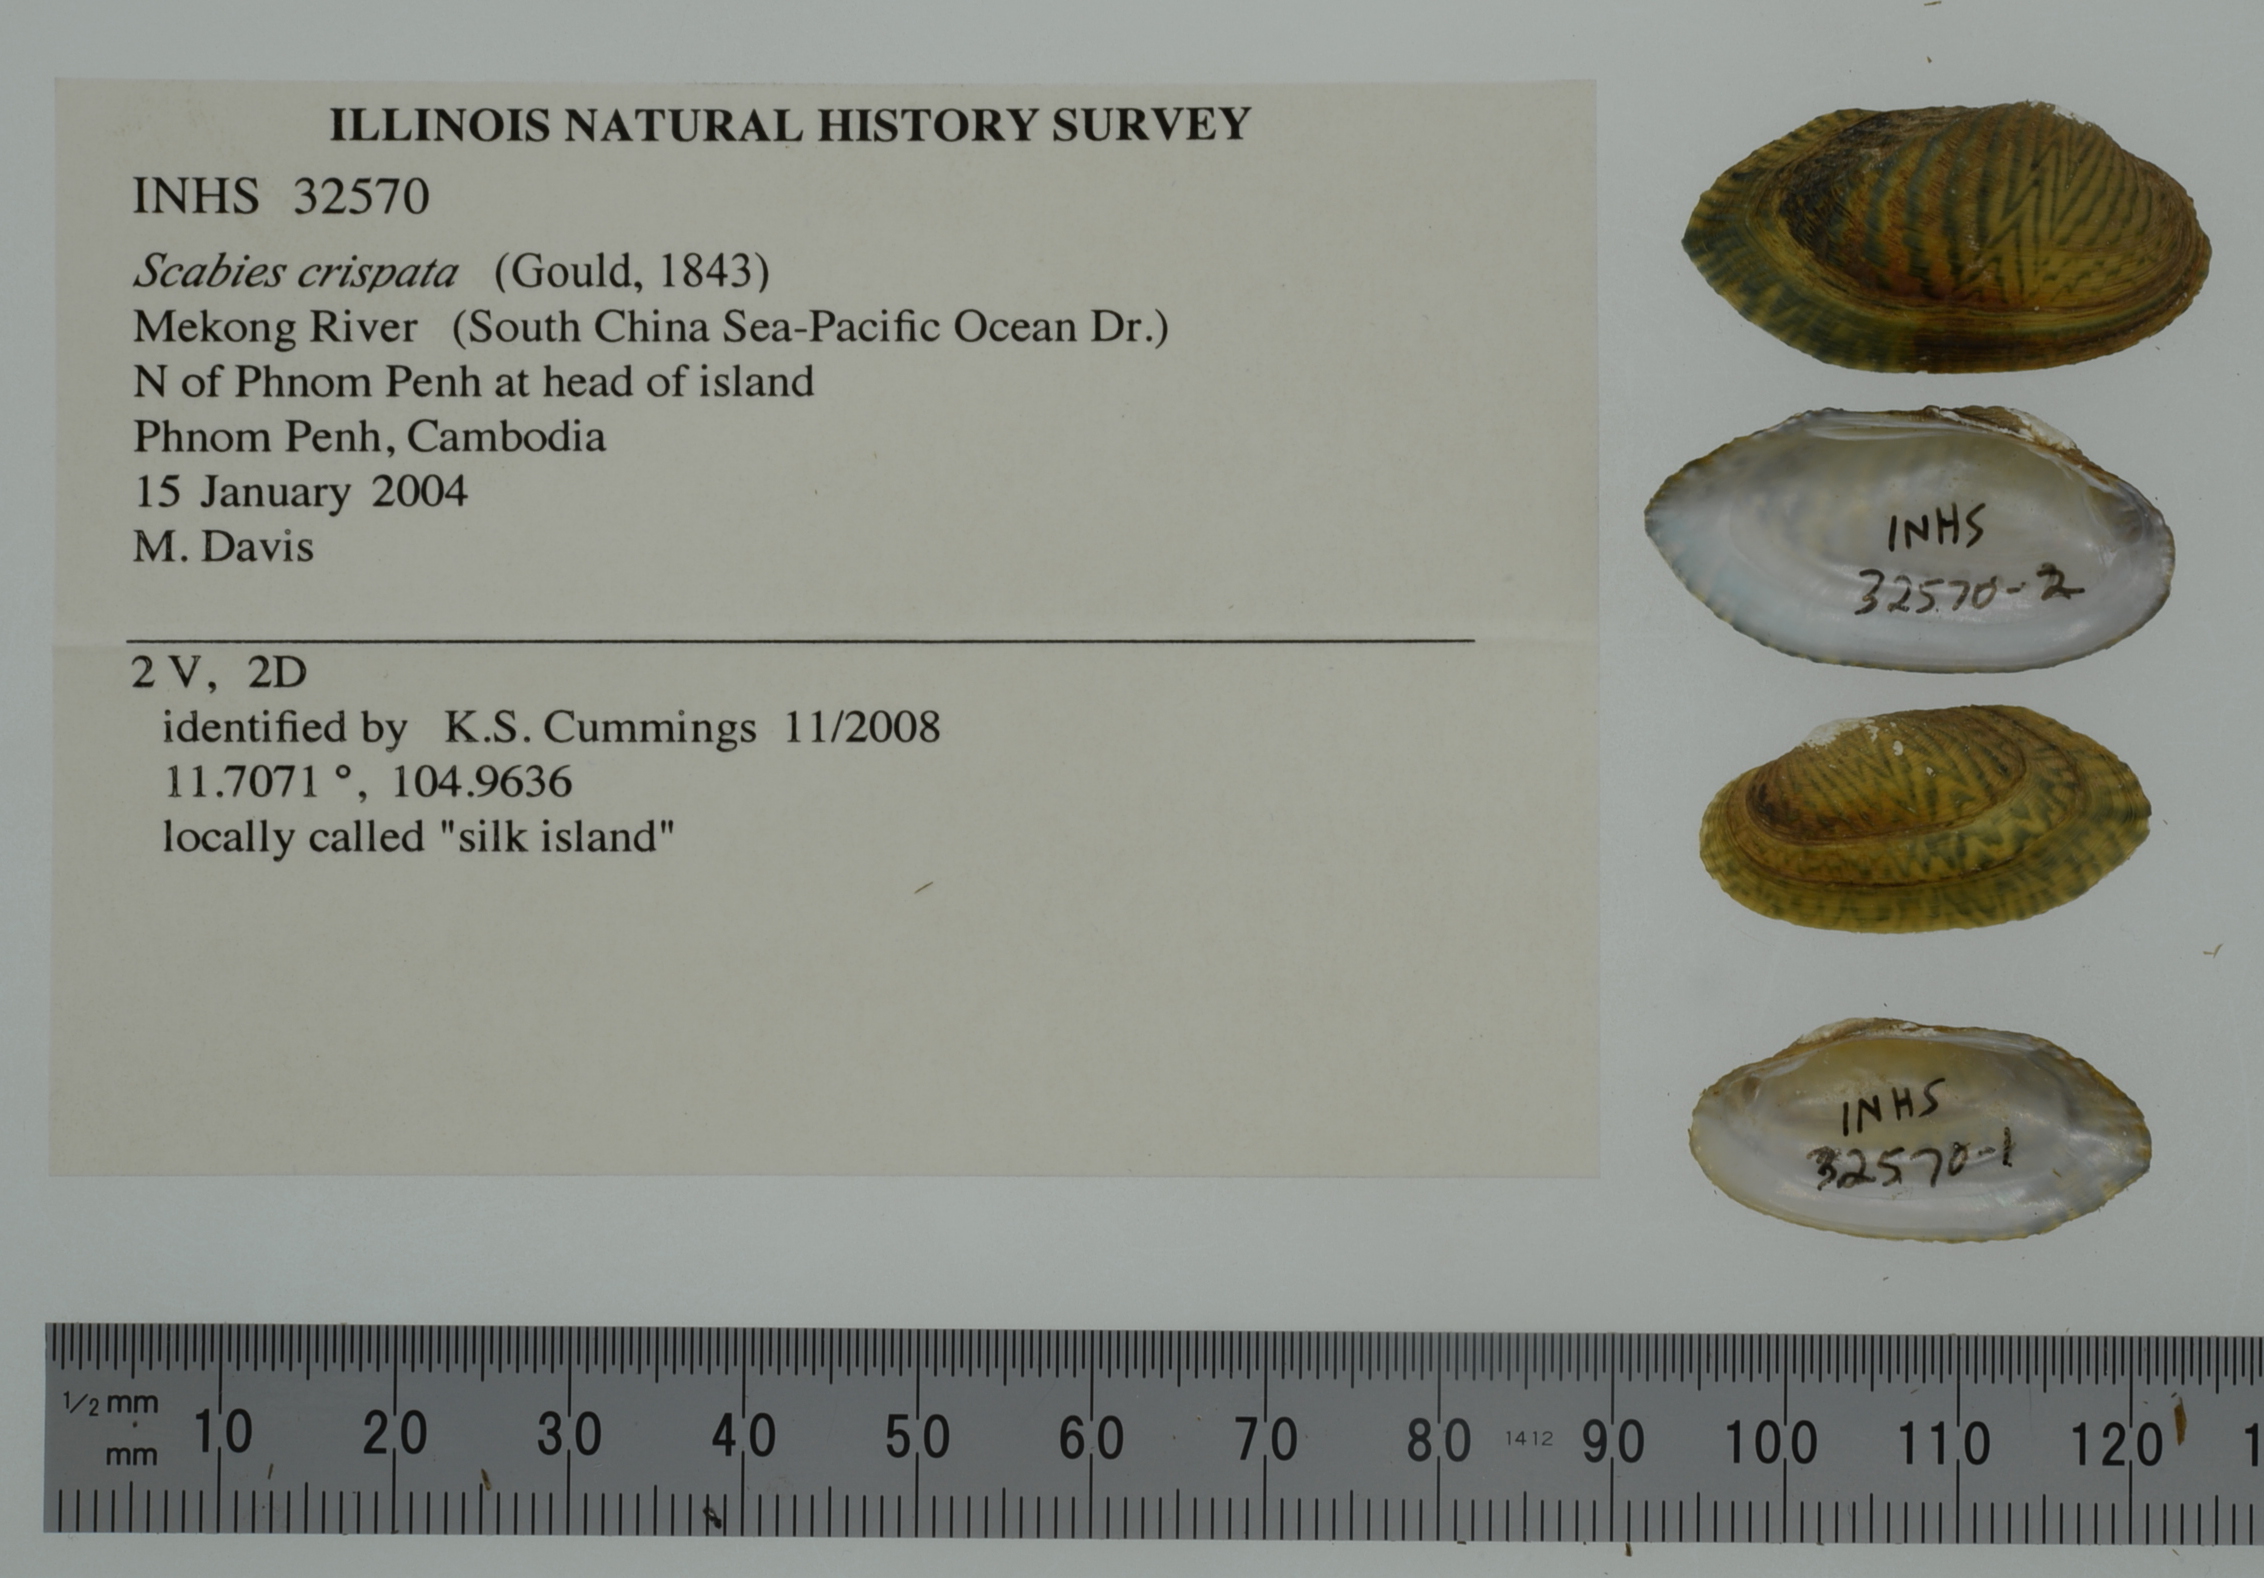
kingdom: Animalia
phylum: Mollusca
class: Bivalvia
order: Unionida
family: Unionidae
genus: Scabies
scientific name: Scabies crispata
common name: Scribbled mussel
